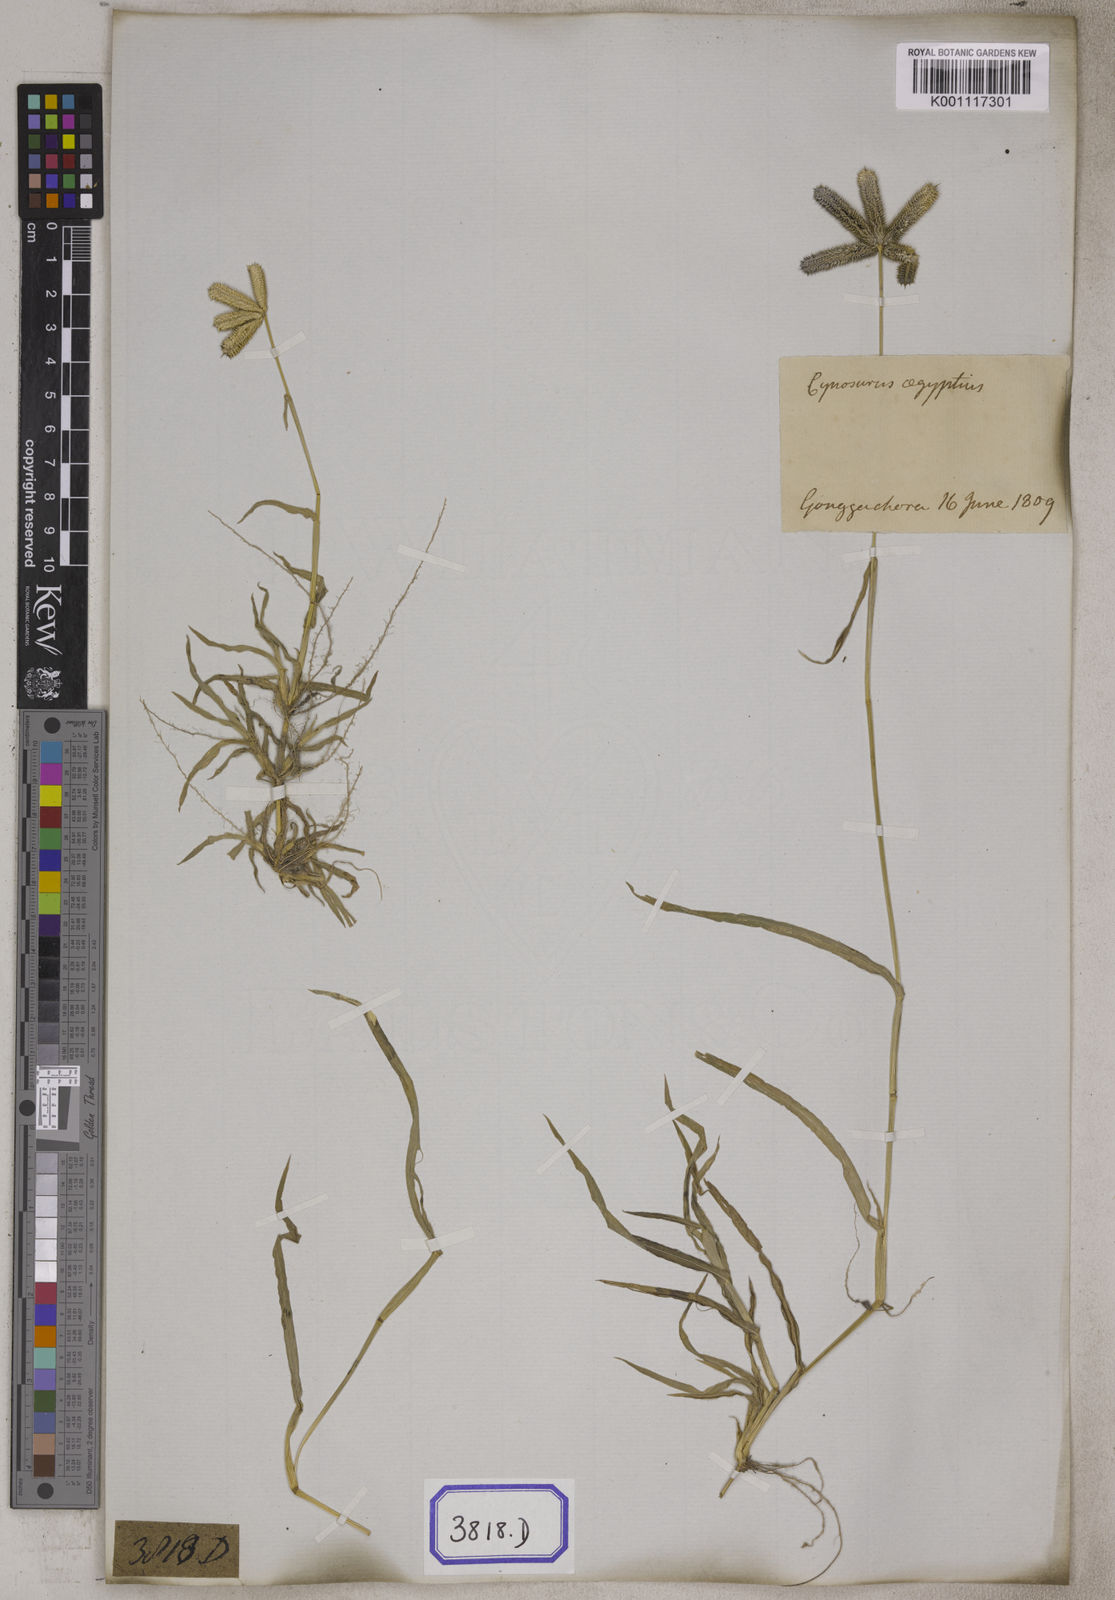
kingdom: Plantae
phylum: Tracheophyta
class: Liliopsida
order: Poales
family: Poaceae
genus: Eleusine
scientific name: Eleusine
